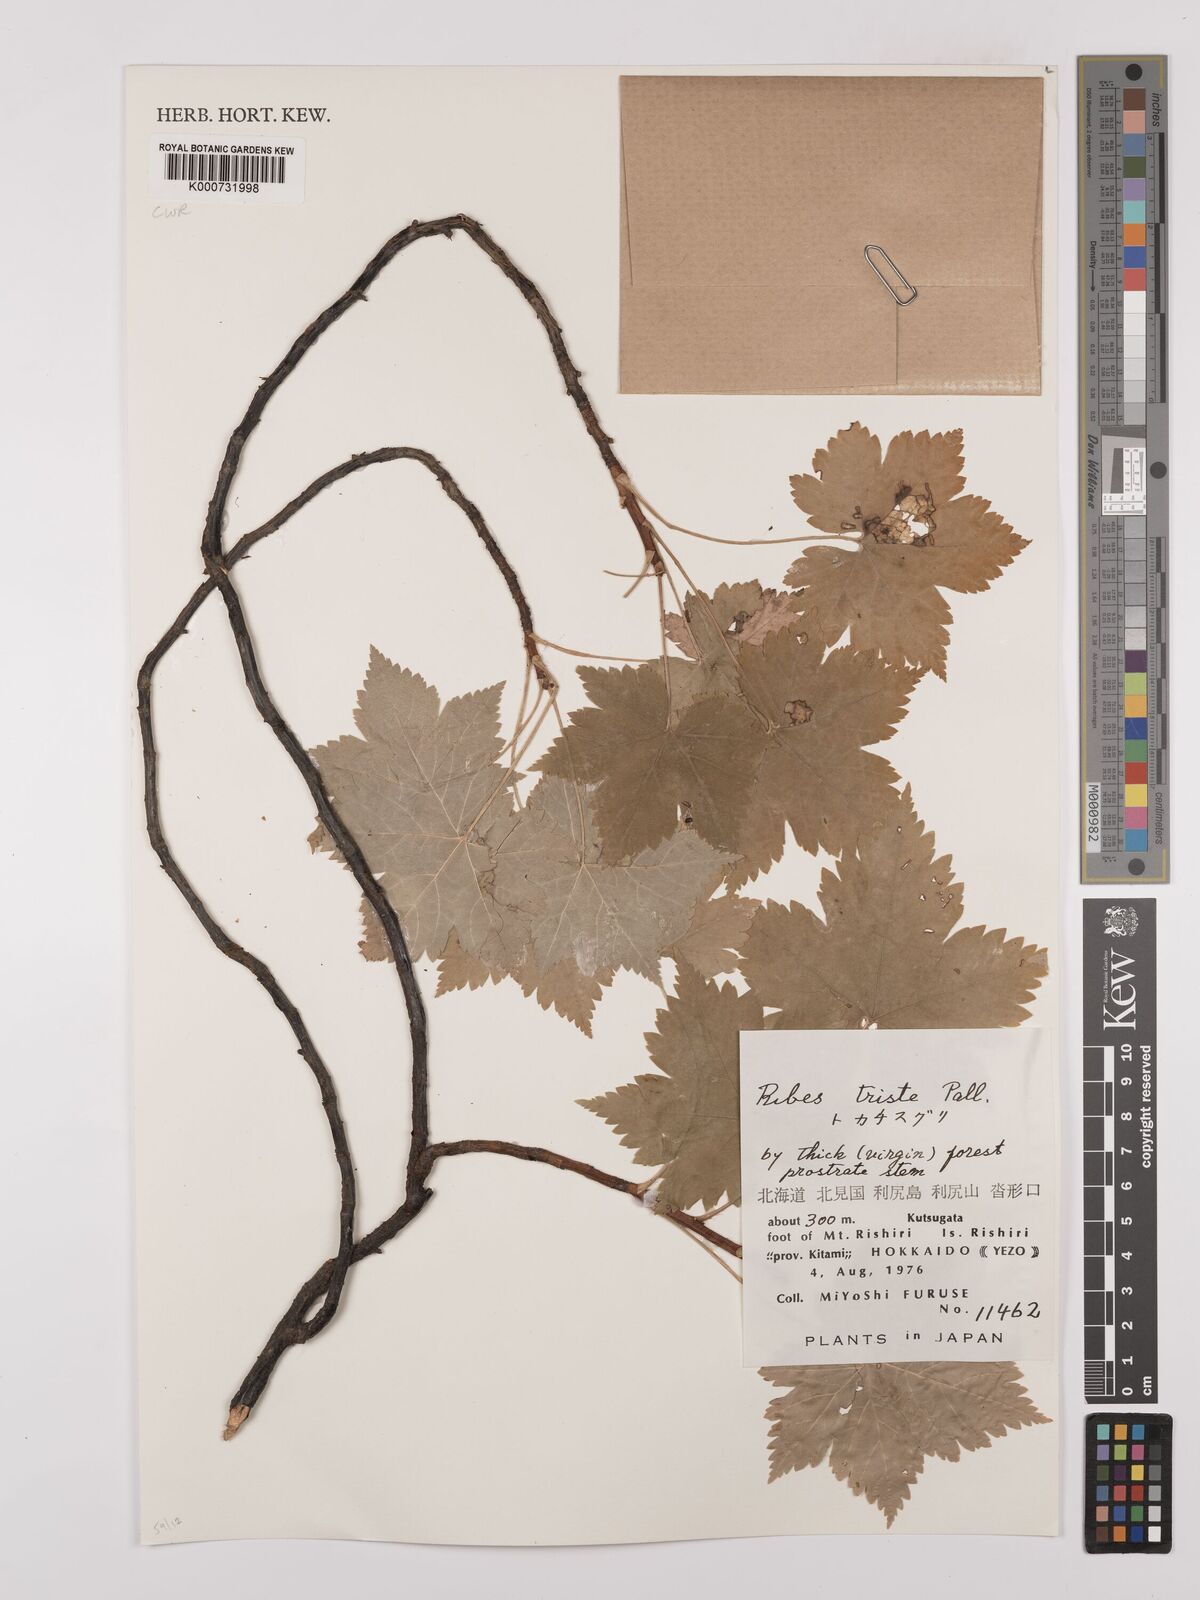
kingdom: Plantae
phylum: Tracheophyta
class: Magnoliopsida
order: Saxifragales
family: Grossulariaceae
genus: Ribes
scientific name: Ribes triste
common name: Swamp red currant
